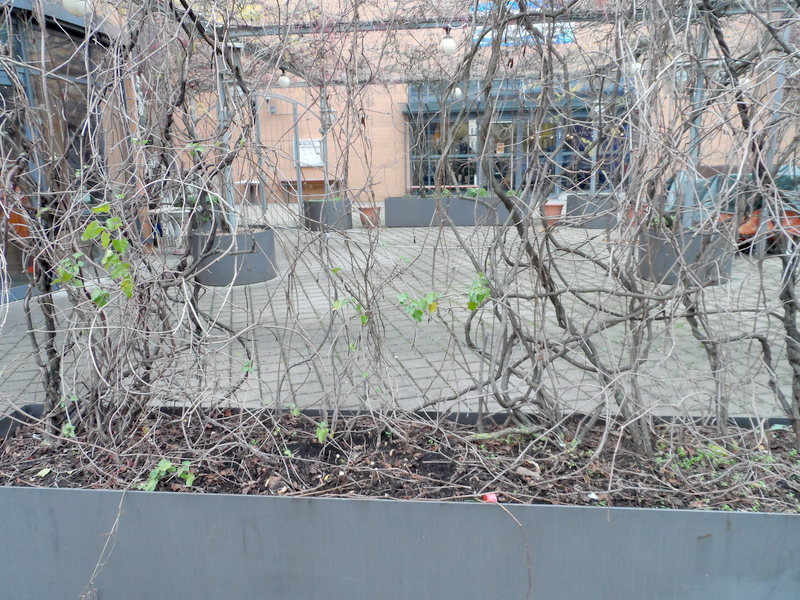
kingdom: Fungi
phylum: Basidiomycota
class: Agaricomycetes
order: Agaricales
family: Agaricaceae
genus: Tulostoma
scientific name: Tulostoma fimbriatum
